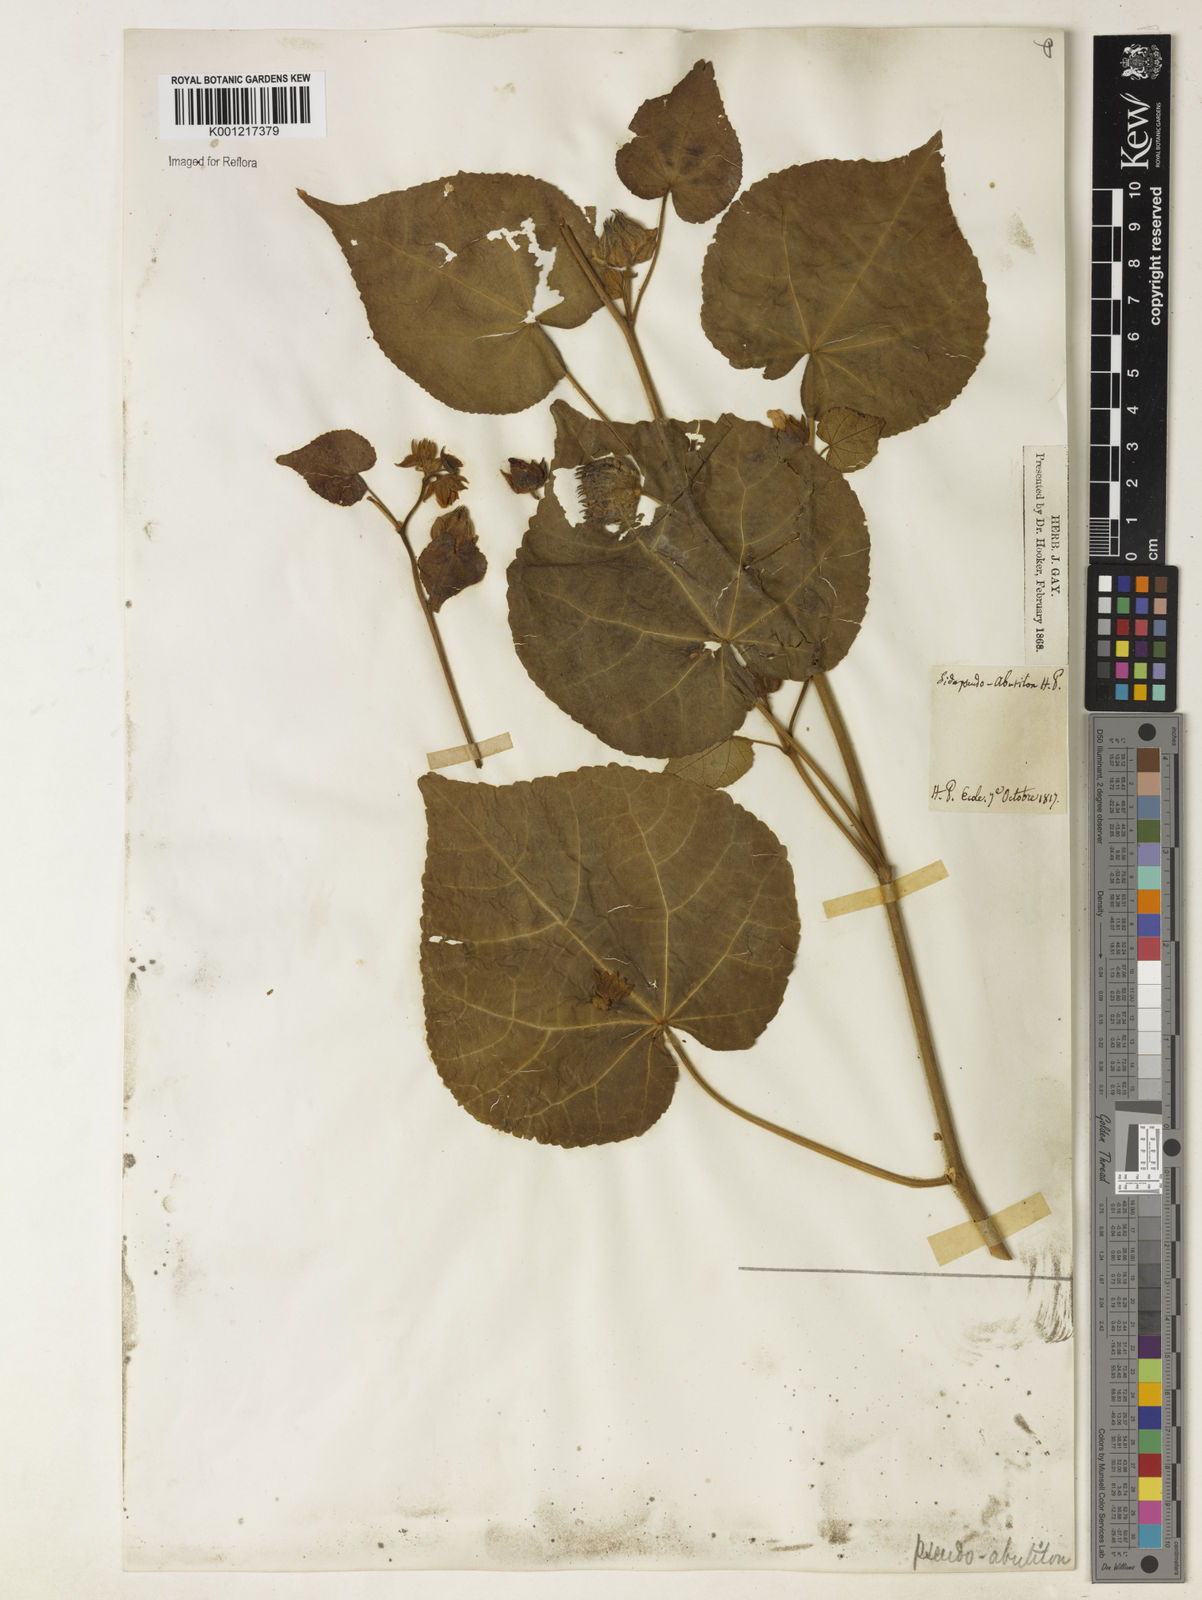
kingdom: Plantae
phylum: Tracheophyta
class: Magnoliopsida
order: Malvales
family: Malvaceae
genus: Abutilon
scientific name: Abutilon
